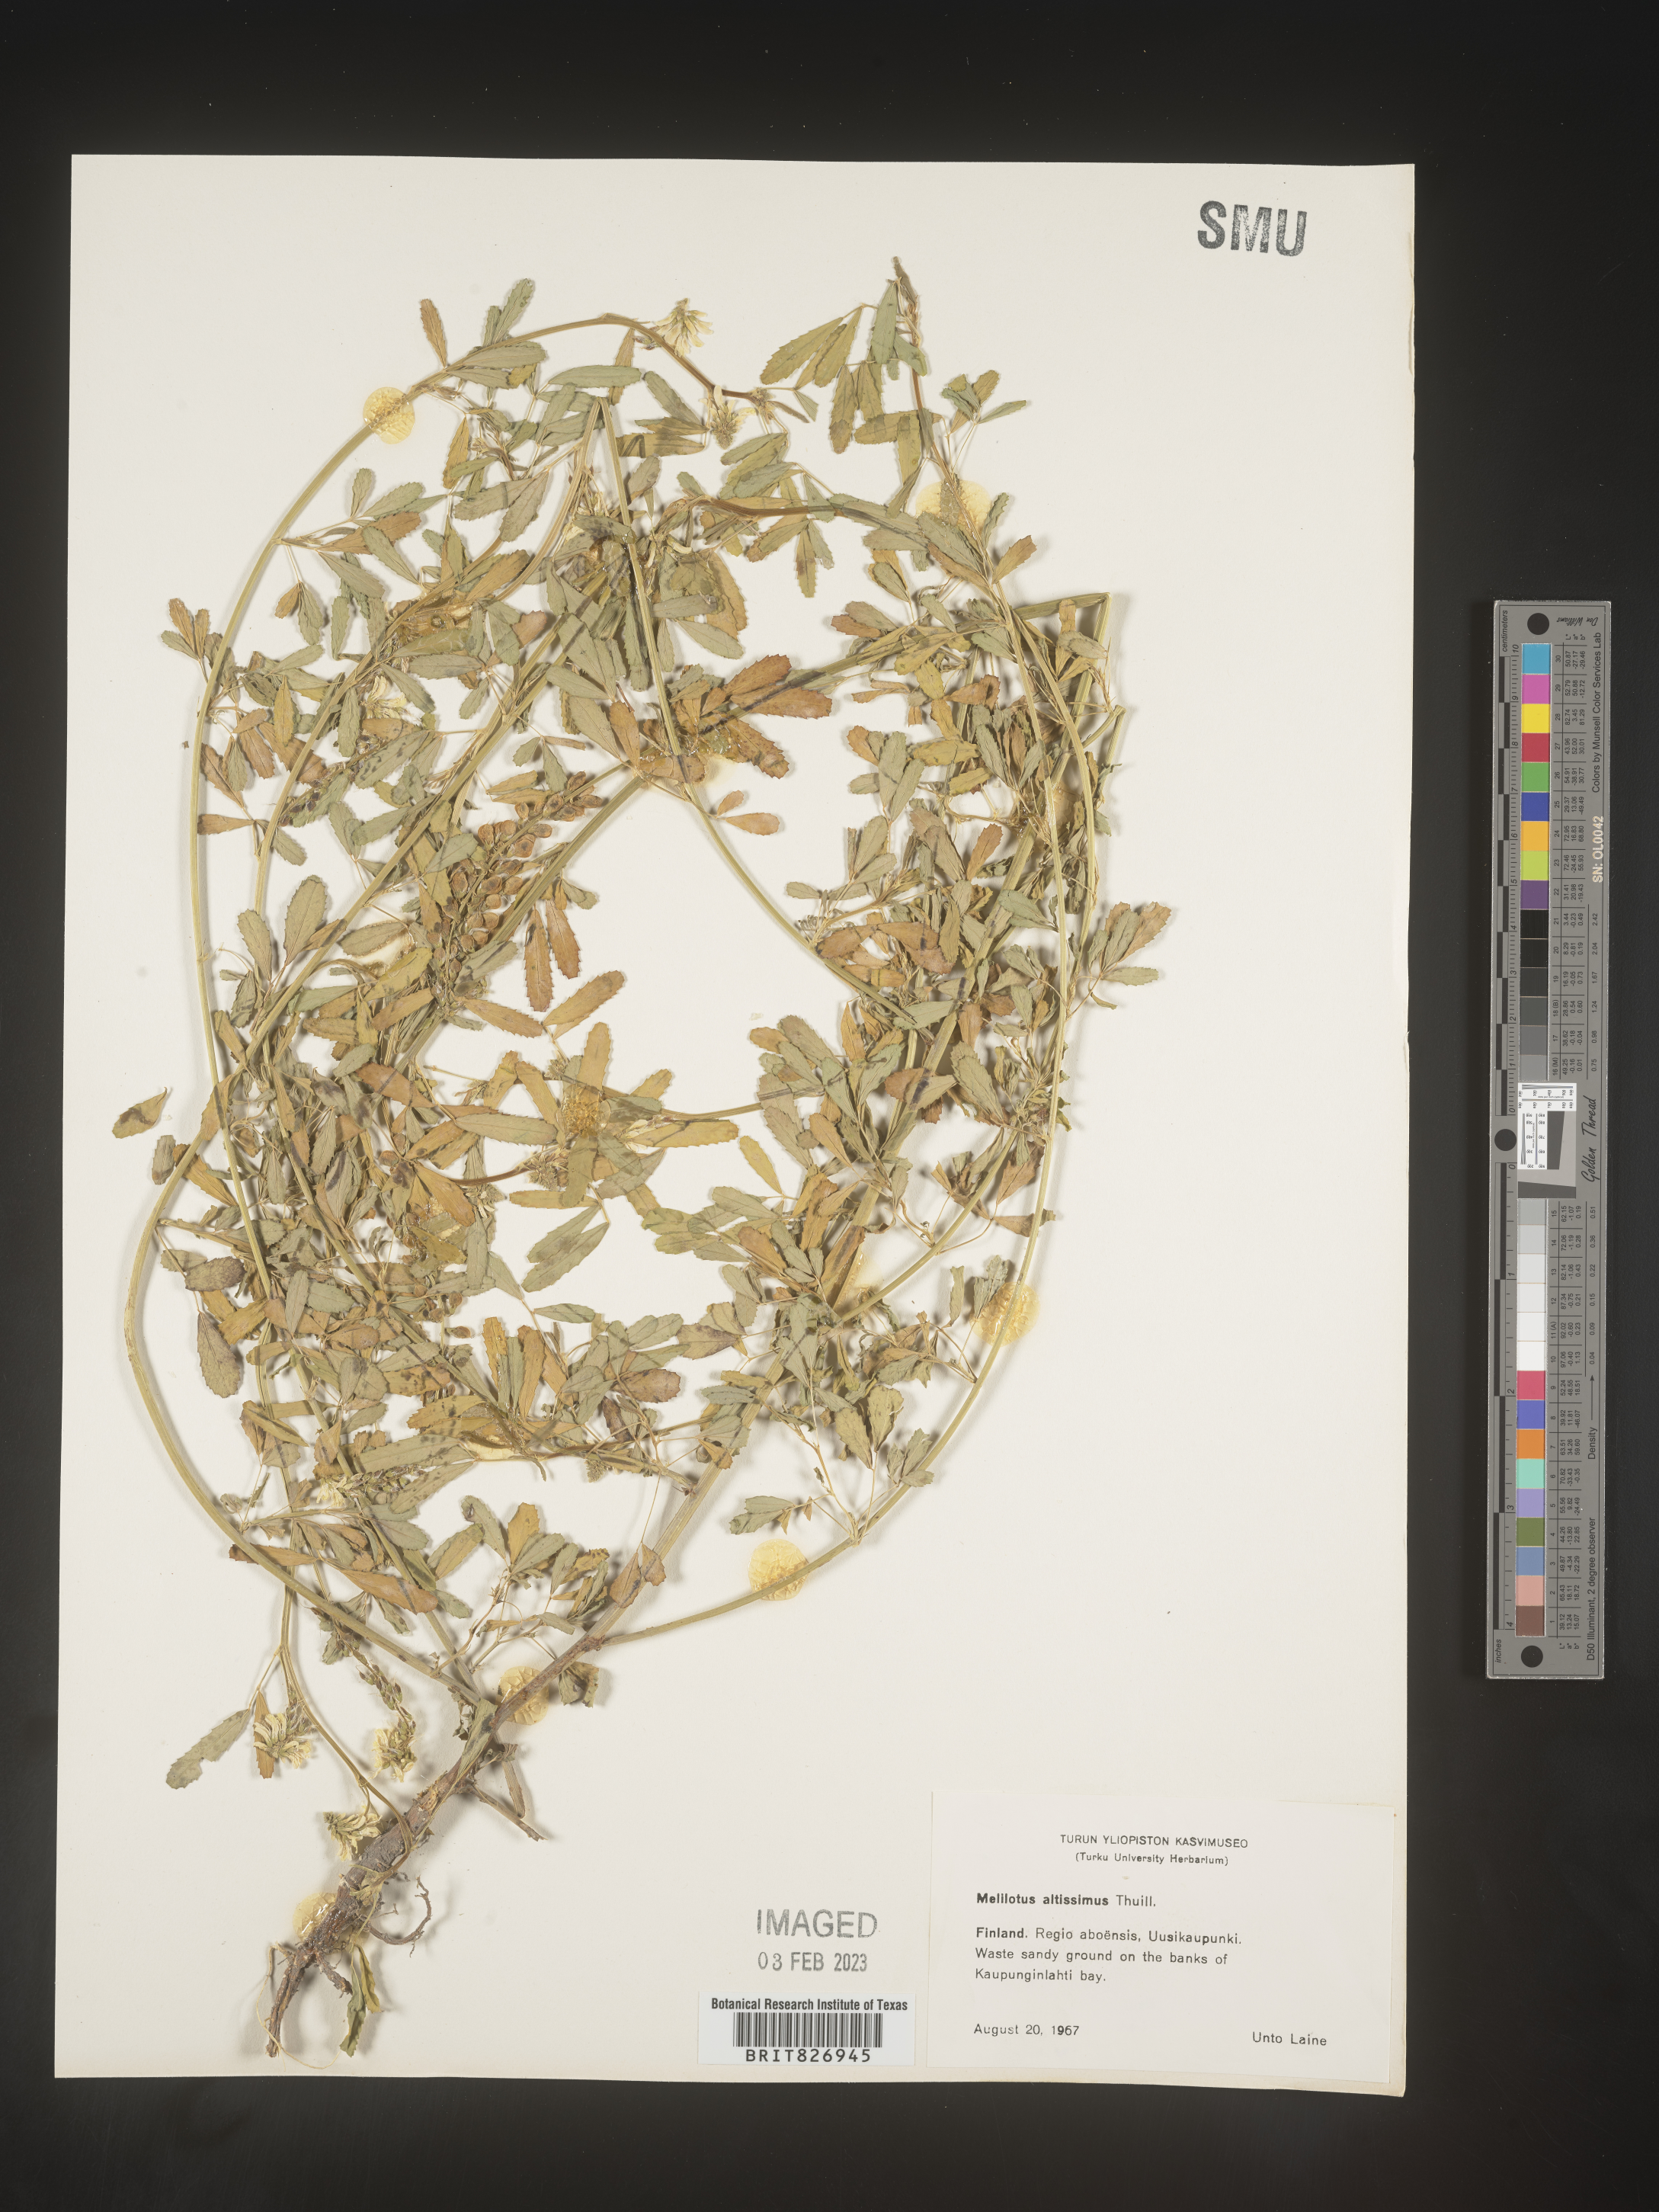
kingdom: Plantae
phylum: Tracheophyta
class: Magnoliopsida
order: Fabales
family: Fabaceae
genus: Melilotus
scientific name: Melilotus
